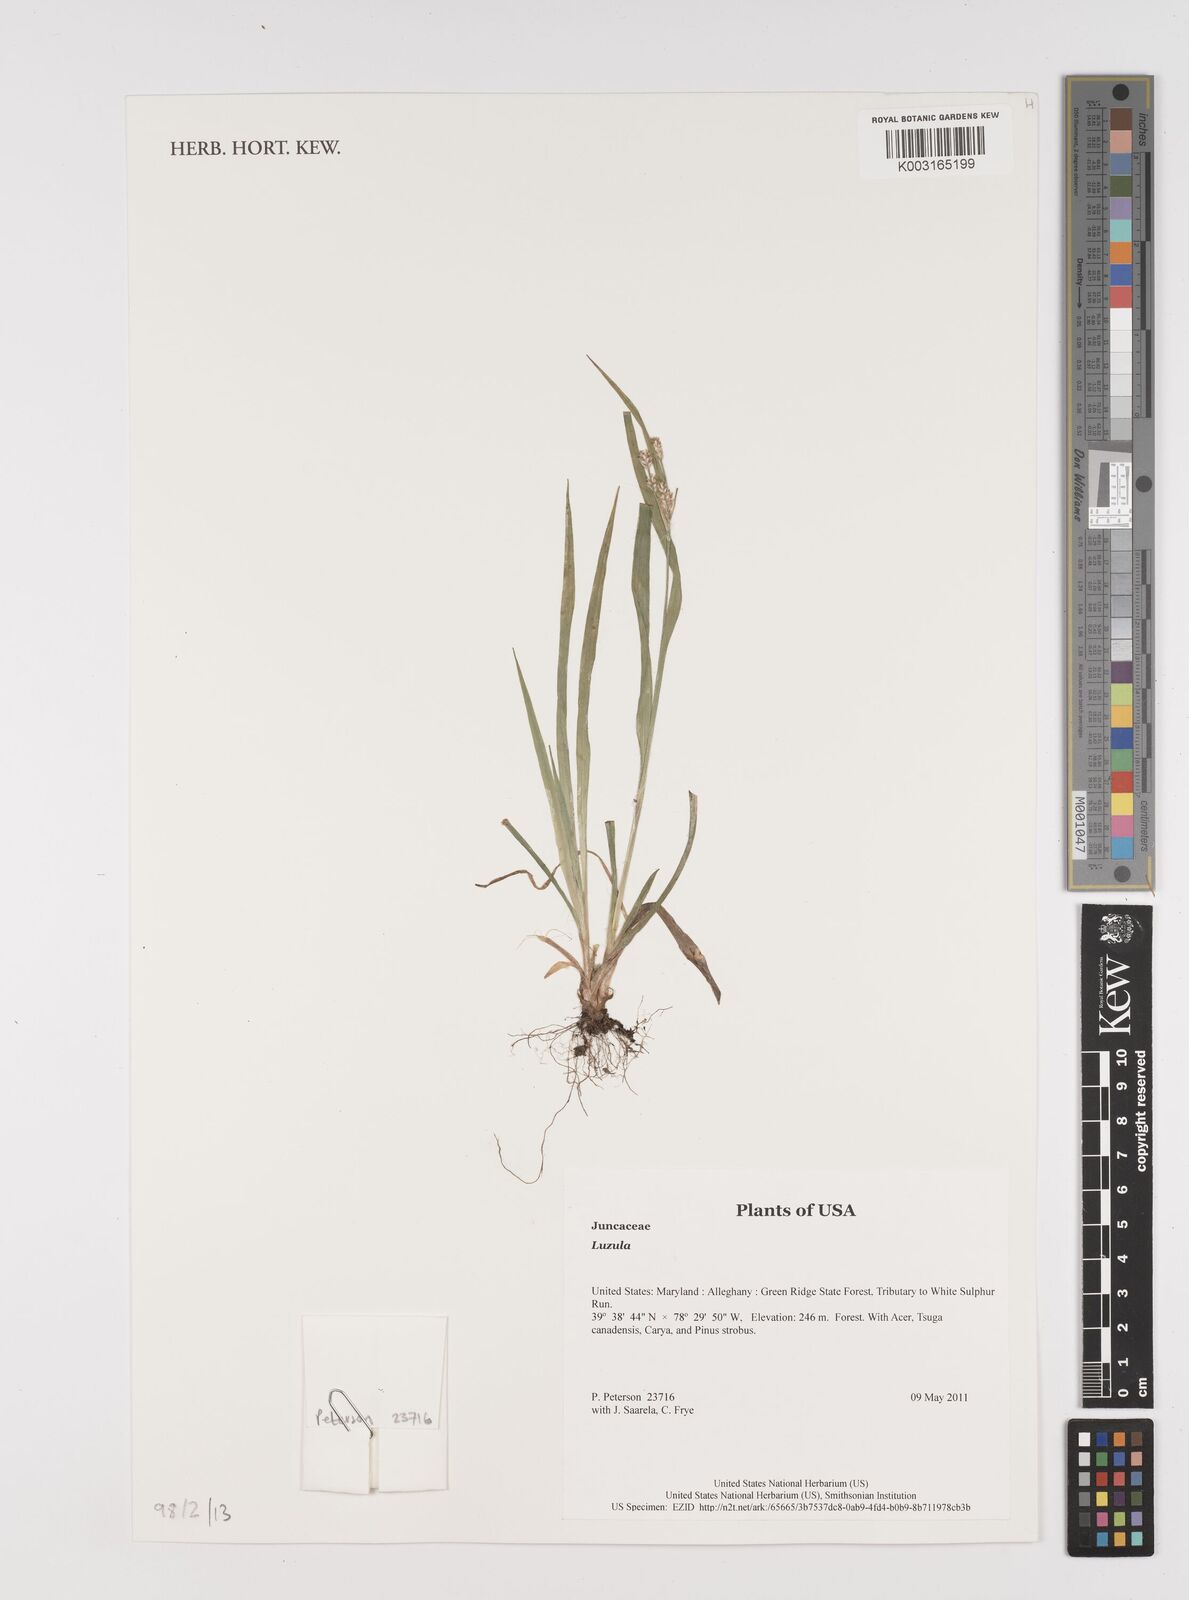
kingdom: Plantae
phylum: Tracheophyta
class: Liliopsida
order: Poales
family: Juncaceae
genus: Luzula
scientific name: Luzula
